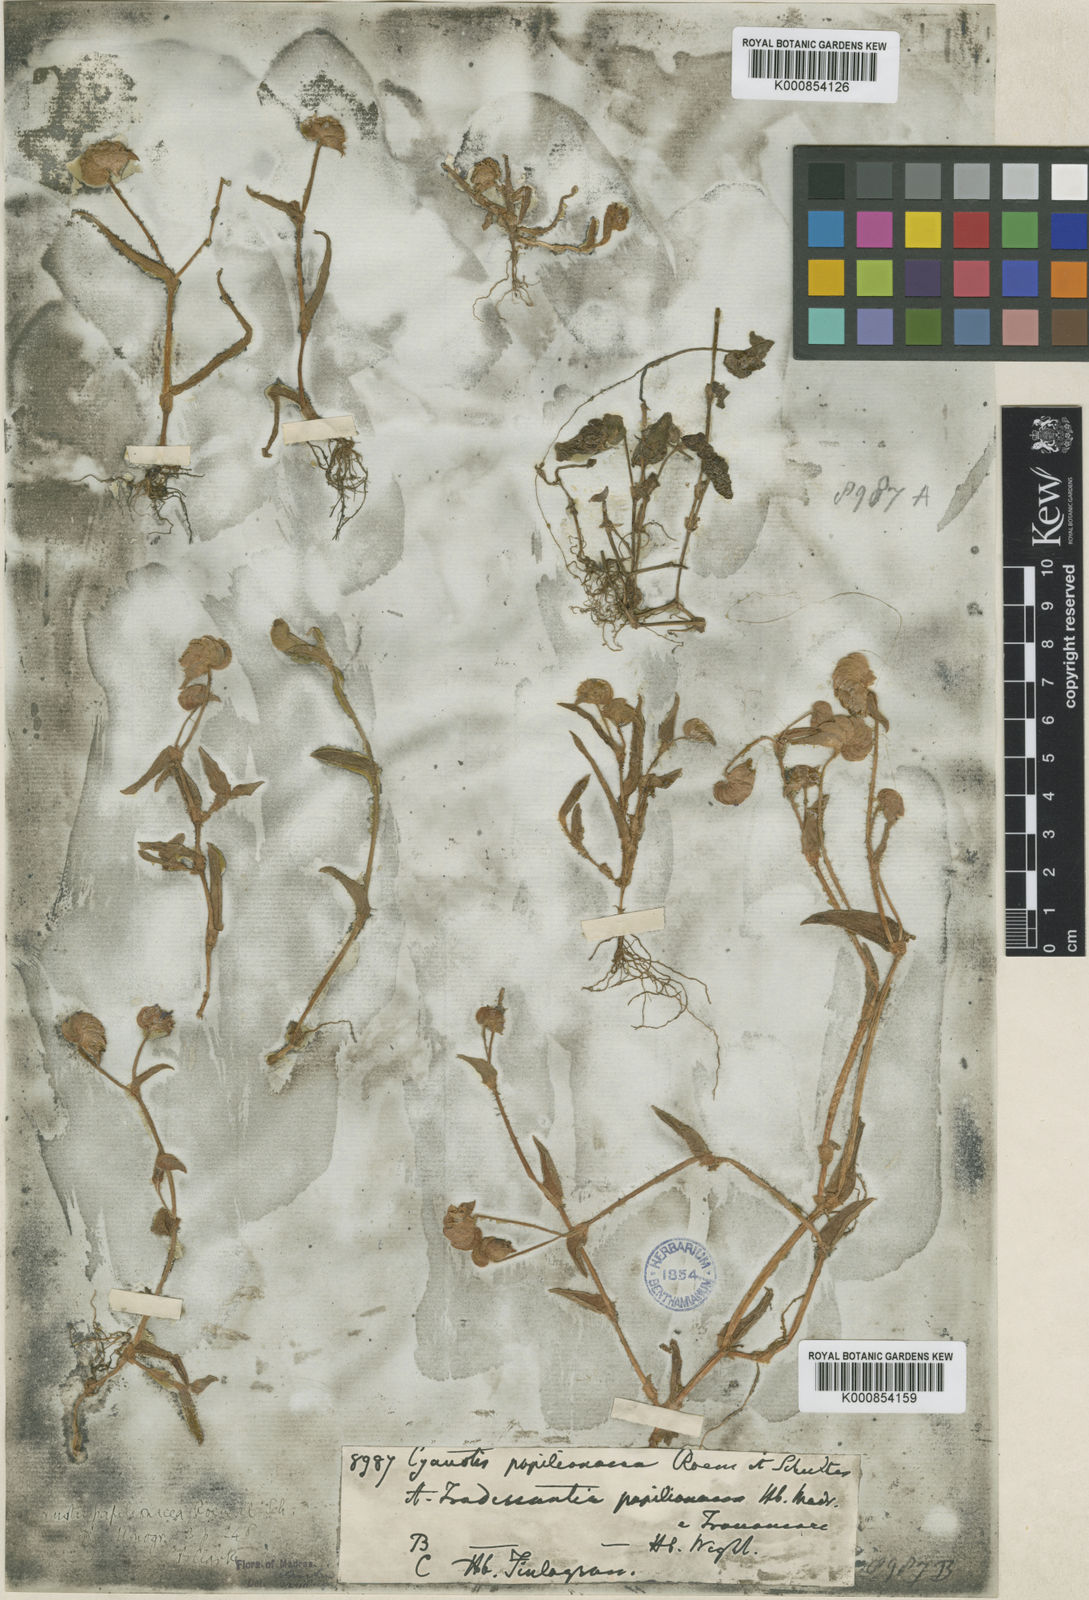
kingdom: Plantae
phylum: Tracheophyta
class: Liliopsida
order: Commelinales
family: Commelinaceae
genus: Cyanotis
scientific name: Cyanotis cristata
